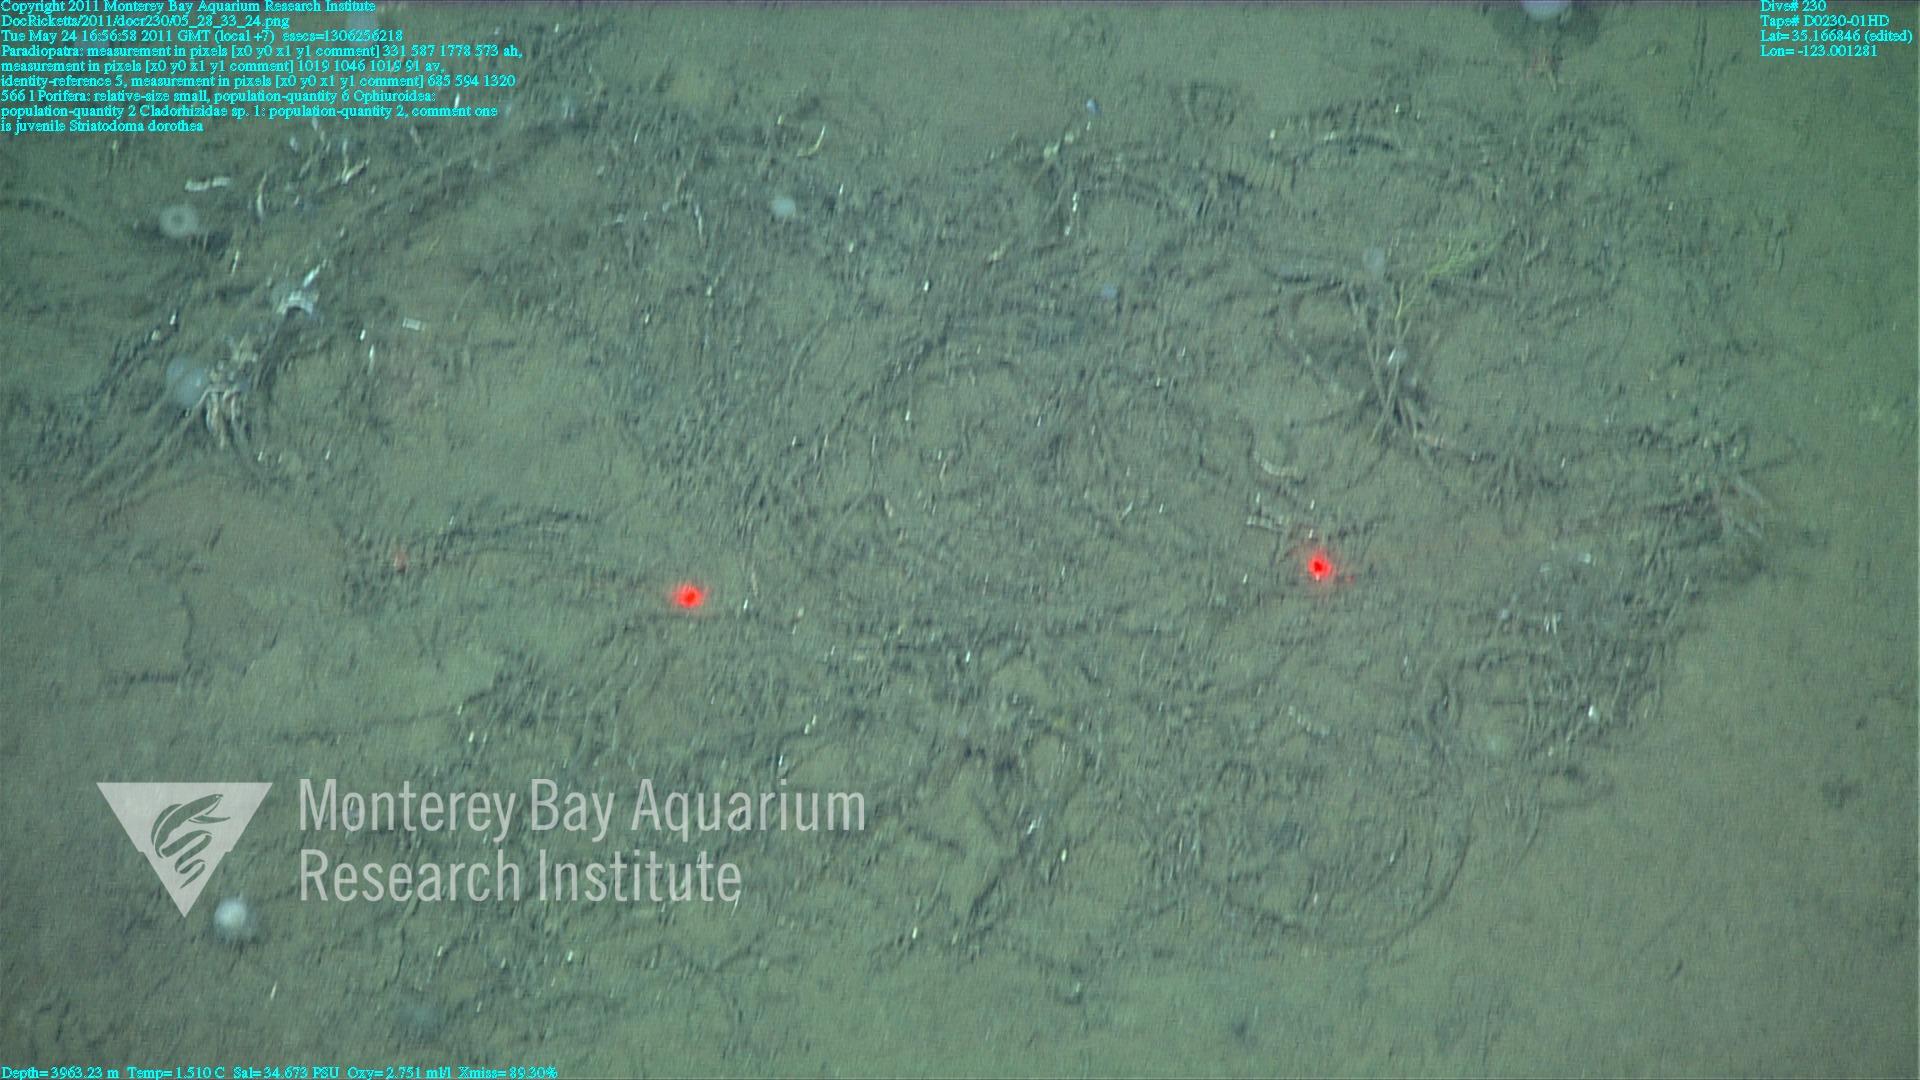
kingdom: Animalia
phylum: Porifera
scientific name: Porifera
